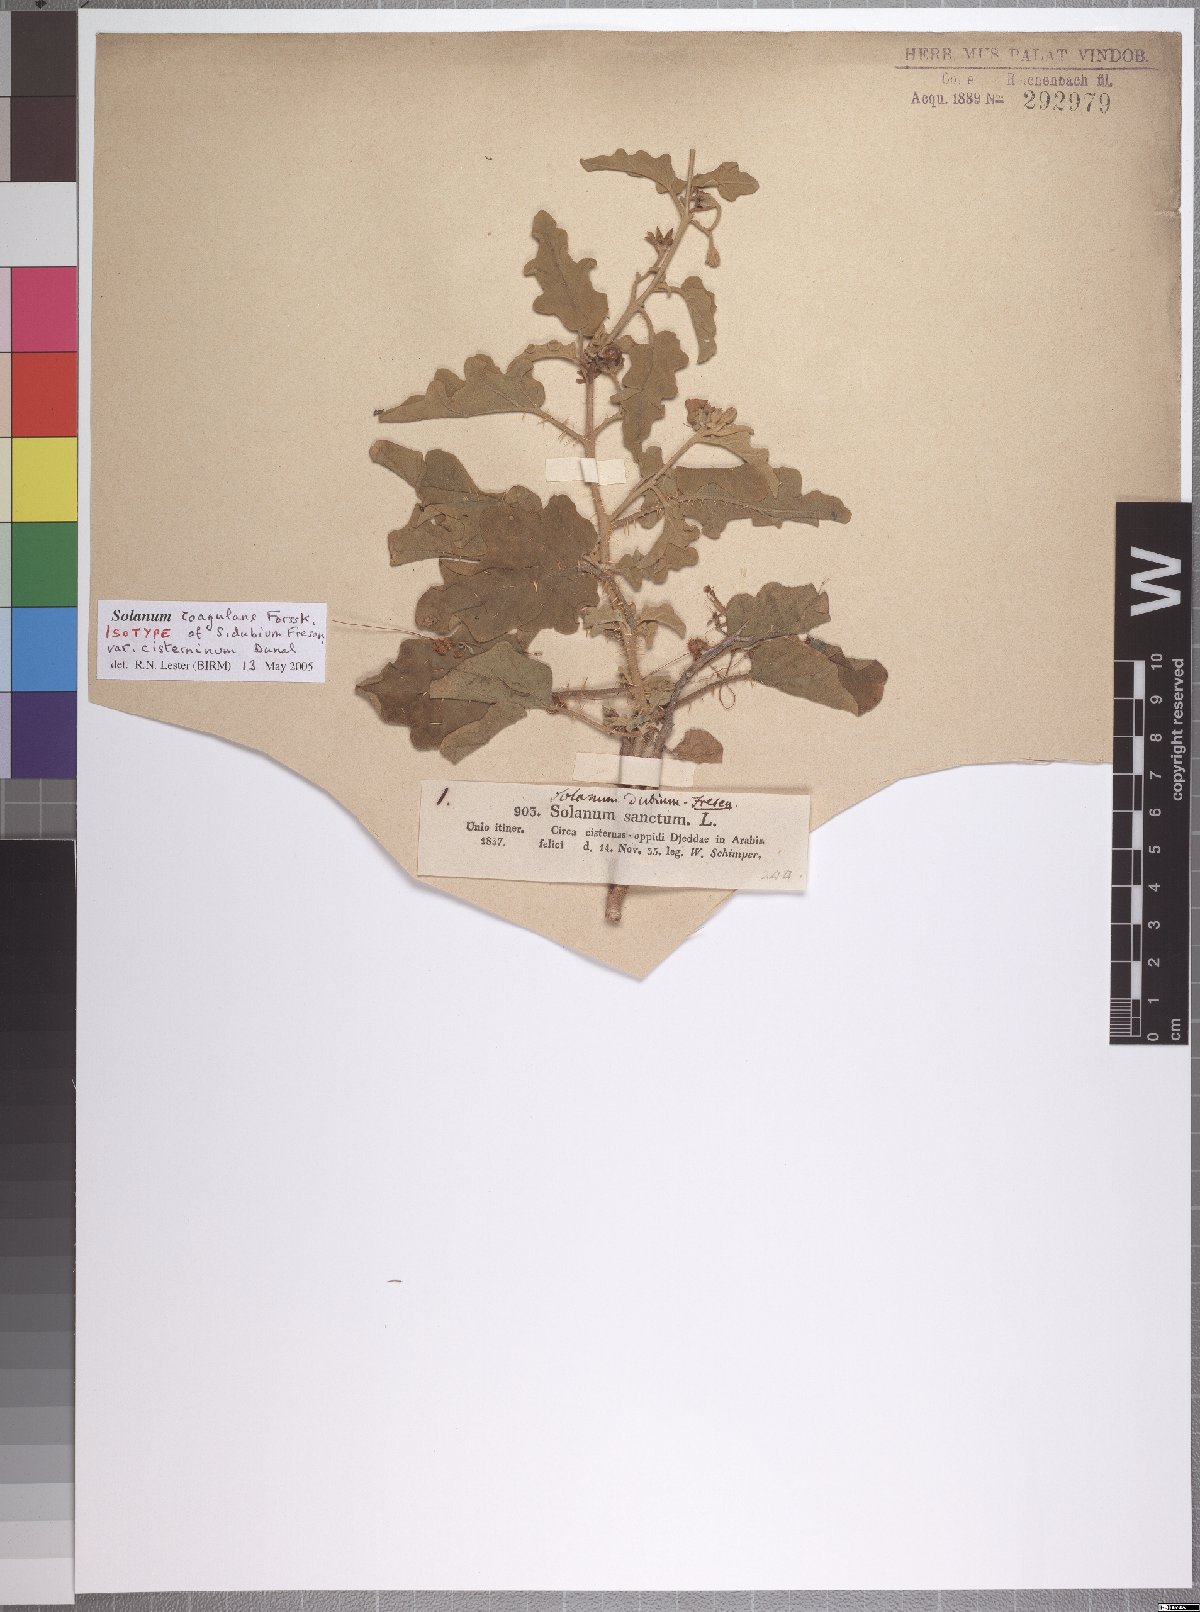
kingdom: Plantae
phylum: Tracheophyta
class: Magnoliopsida
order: Solanales
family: Solanaceae
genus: Solanum
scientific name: Solanum coagulans
